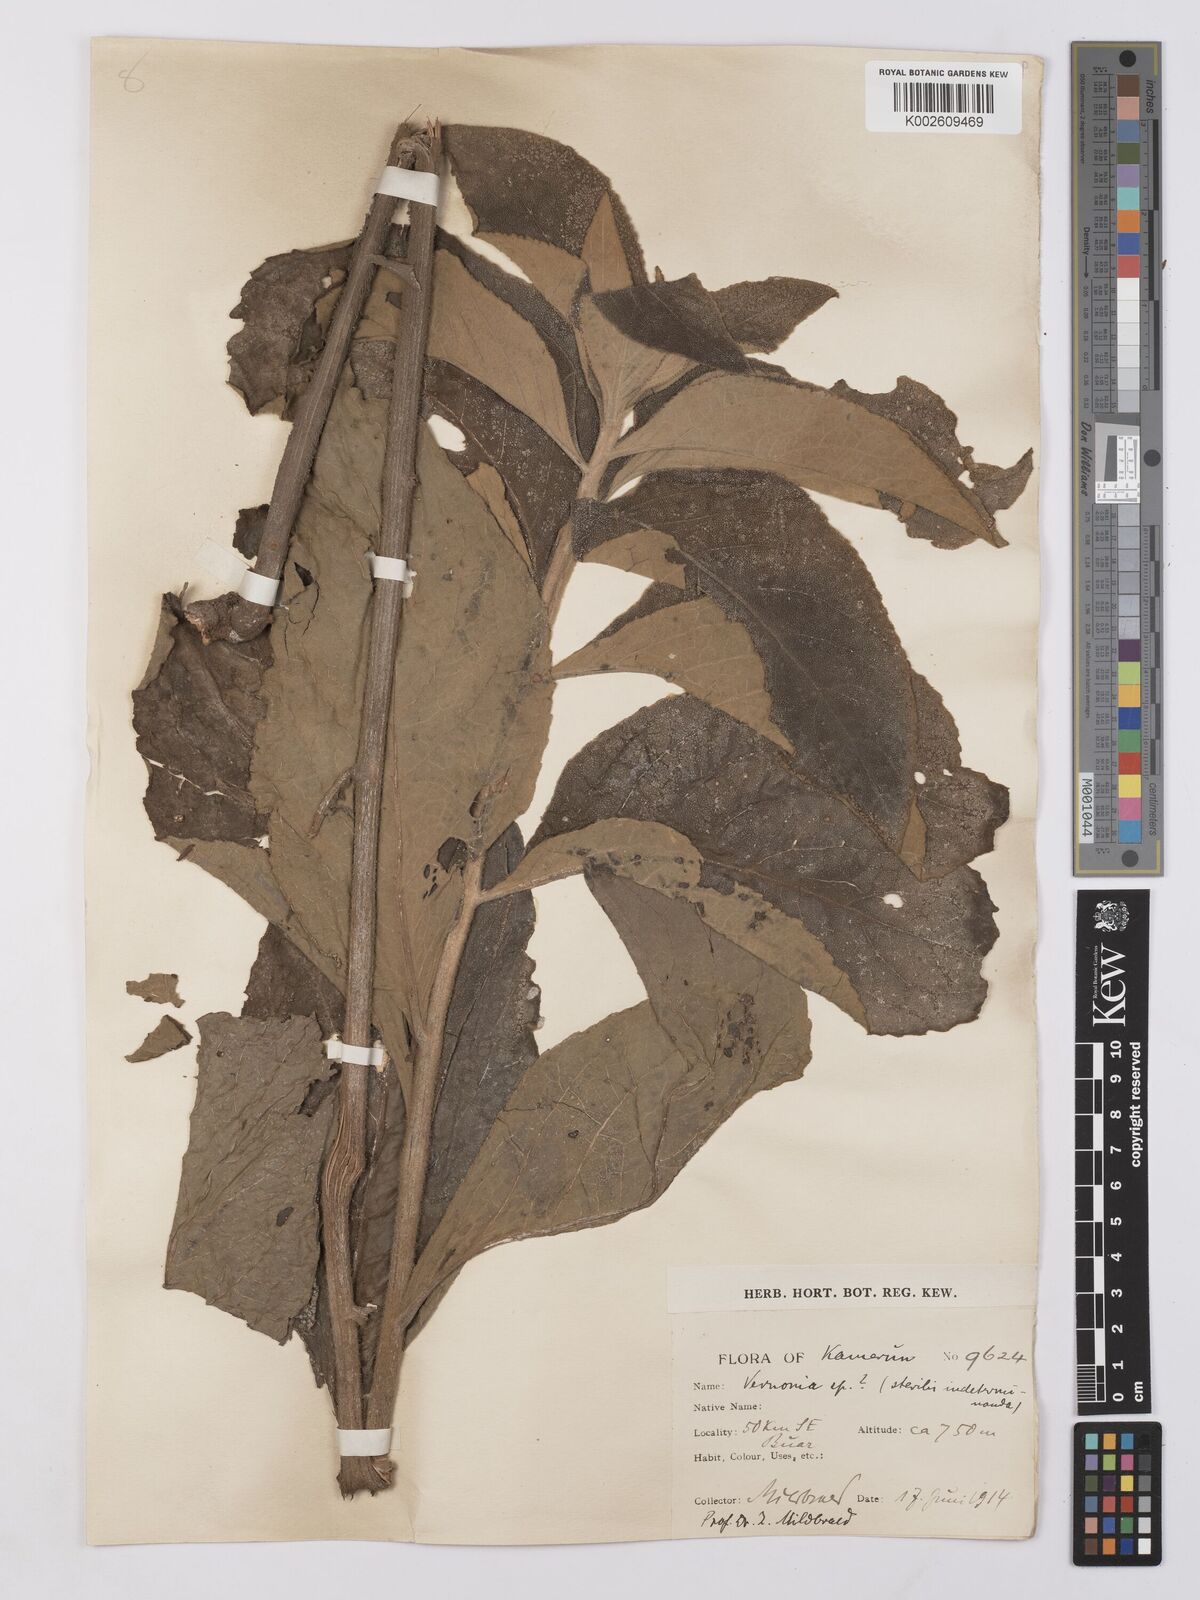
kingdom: Plantae
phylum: Tracheophyta
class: Magnoliopsida
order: Asterales
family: Asteraceae
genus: Vernonia
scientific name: Vernonia
